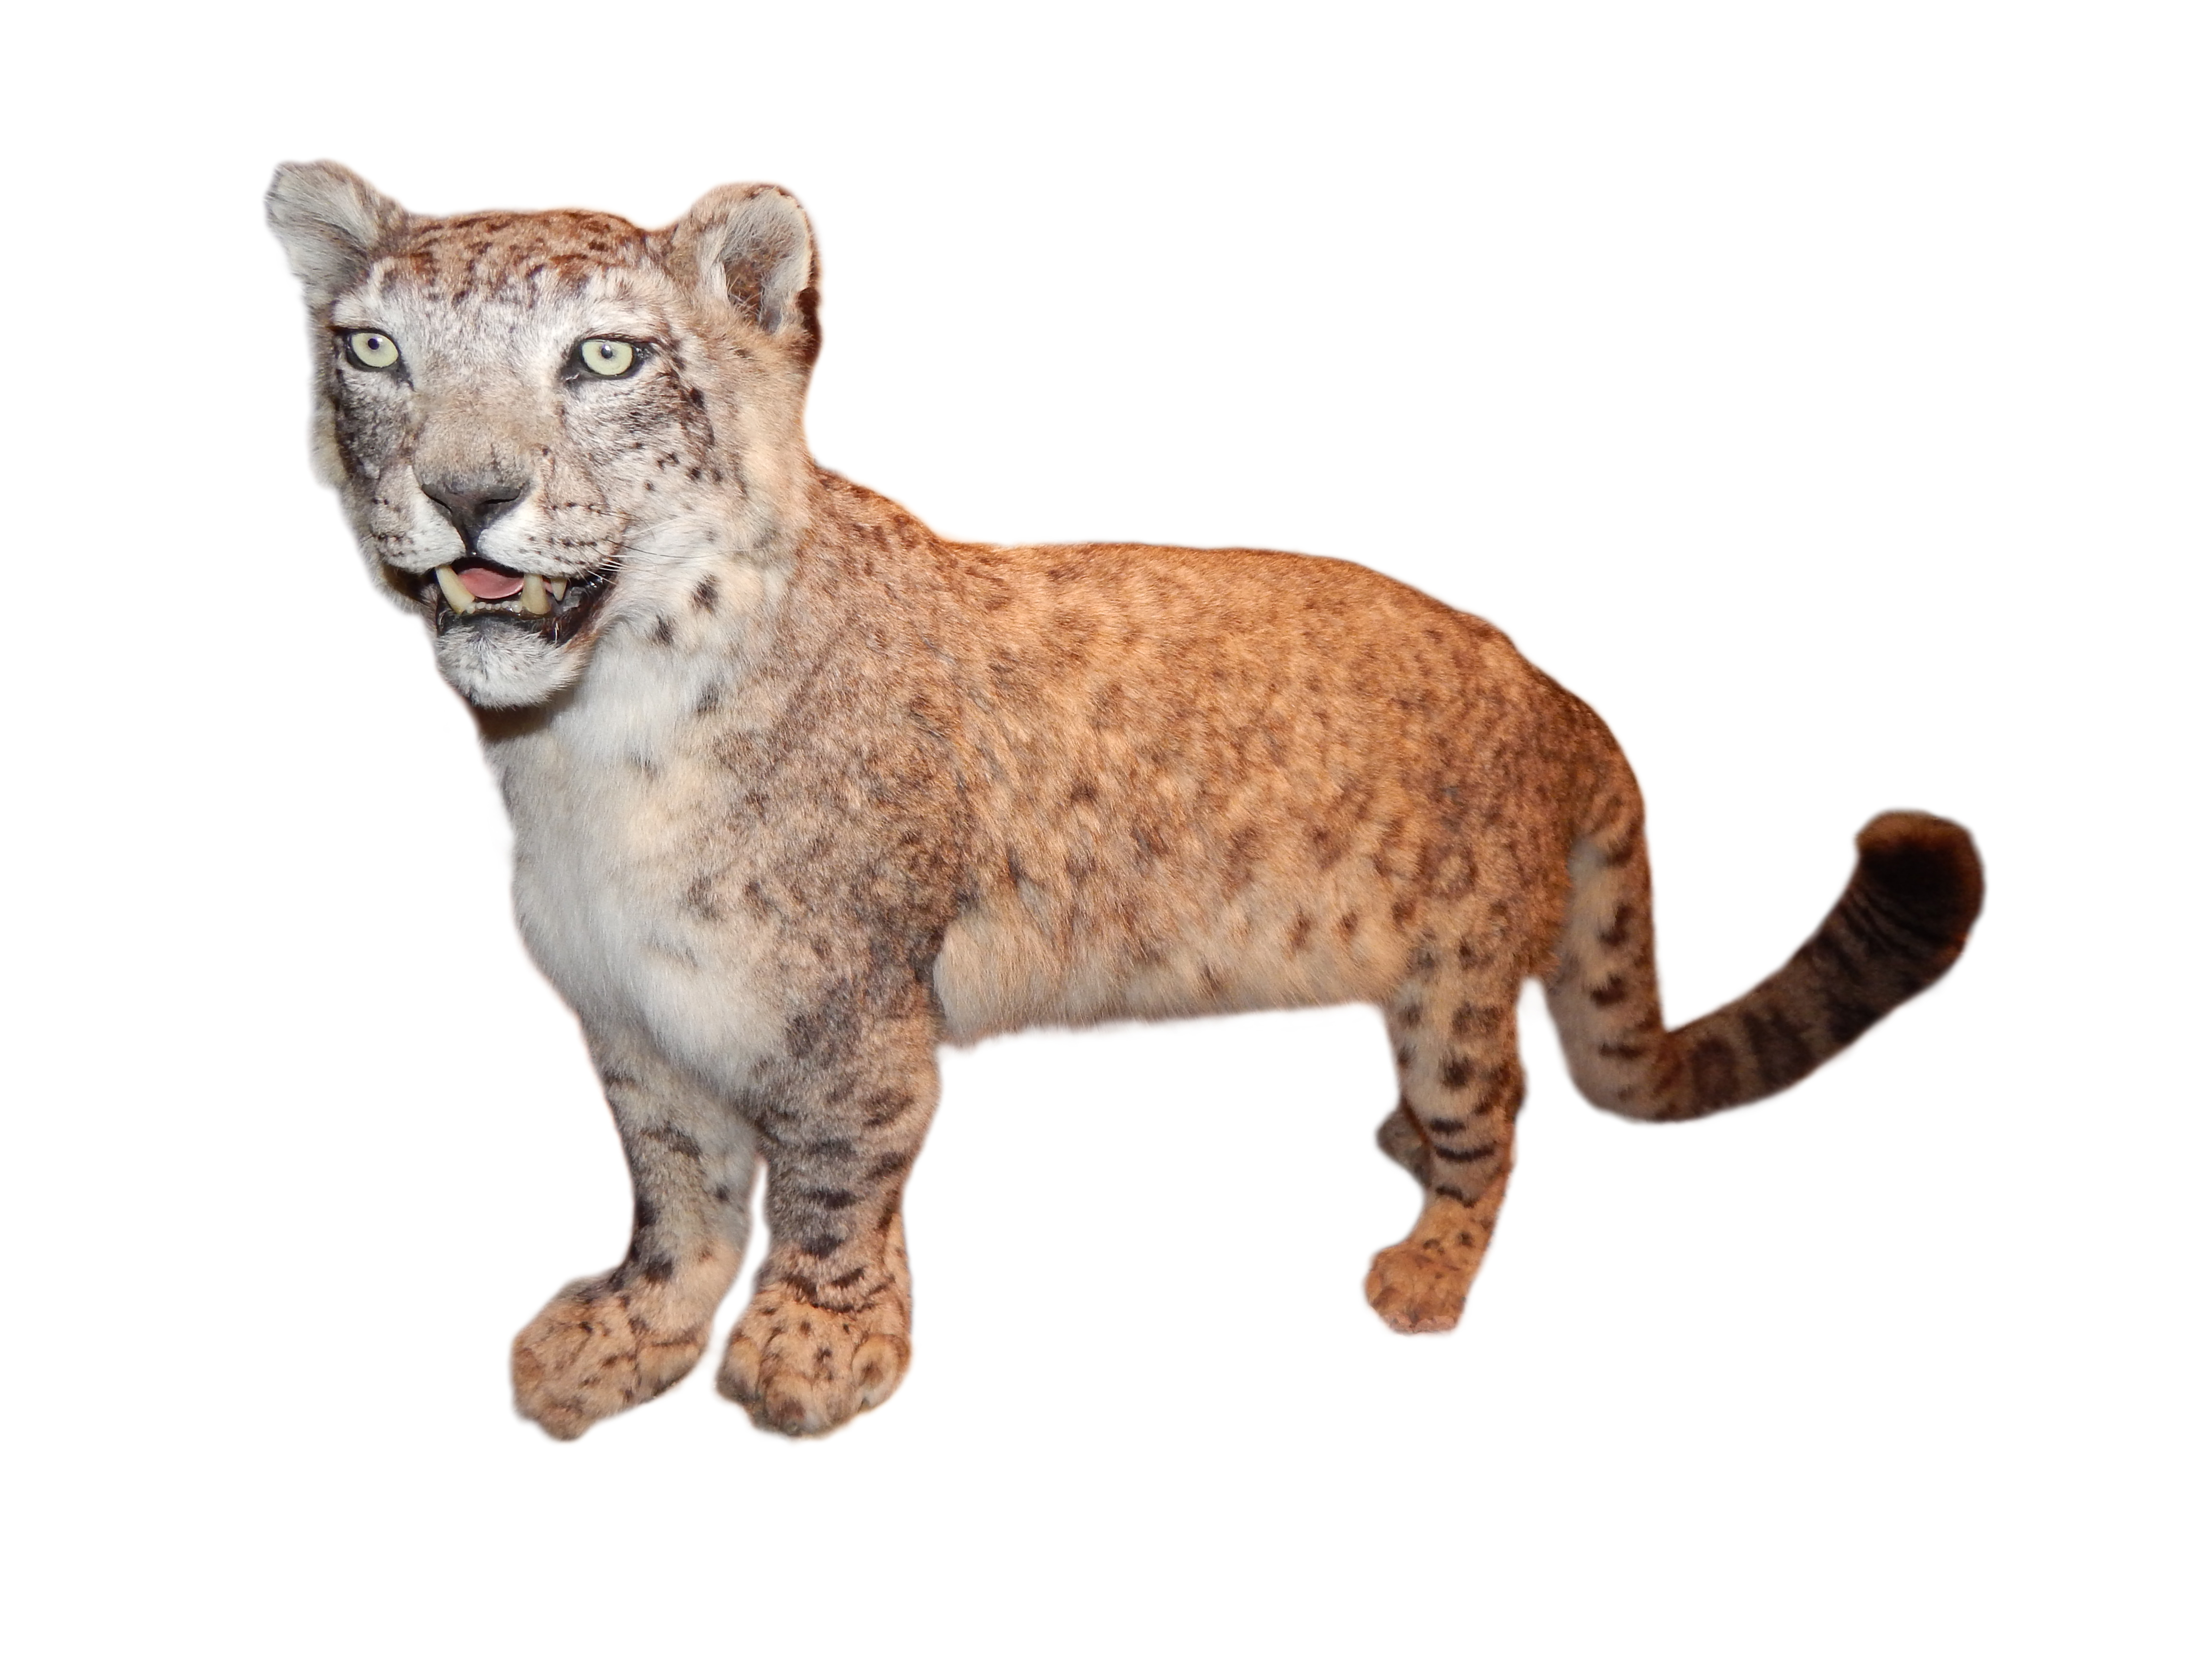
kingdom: Animalia
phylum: Chordata
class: Mammalia
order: Carnivora
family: Felidae
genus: Uncia
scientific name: Uncia uncia
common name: Snow leopard
